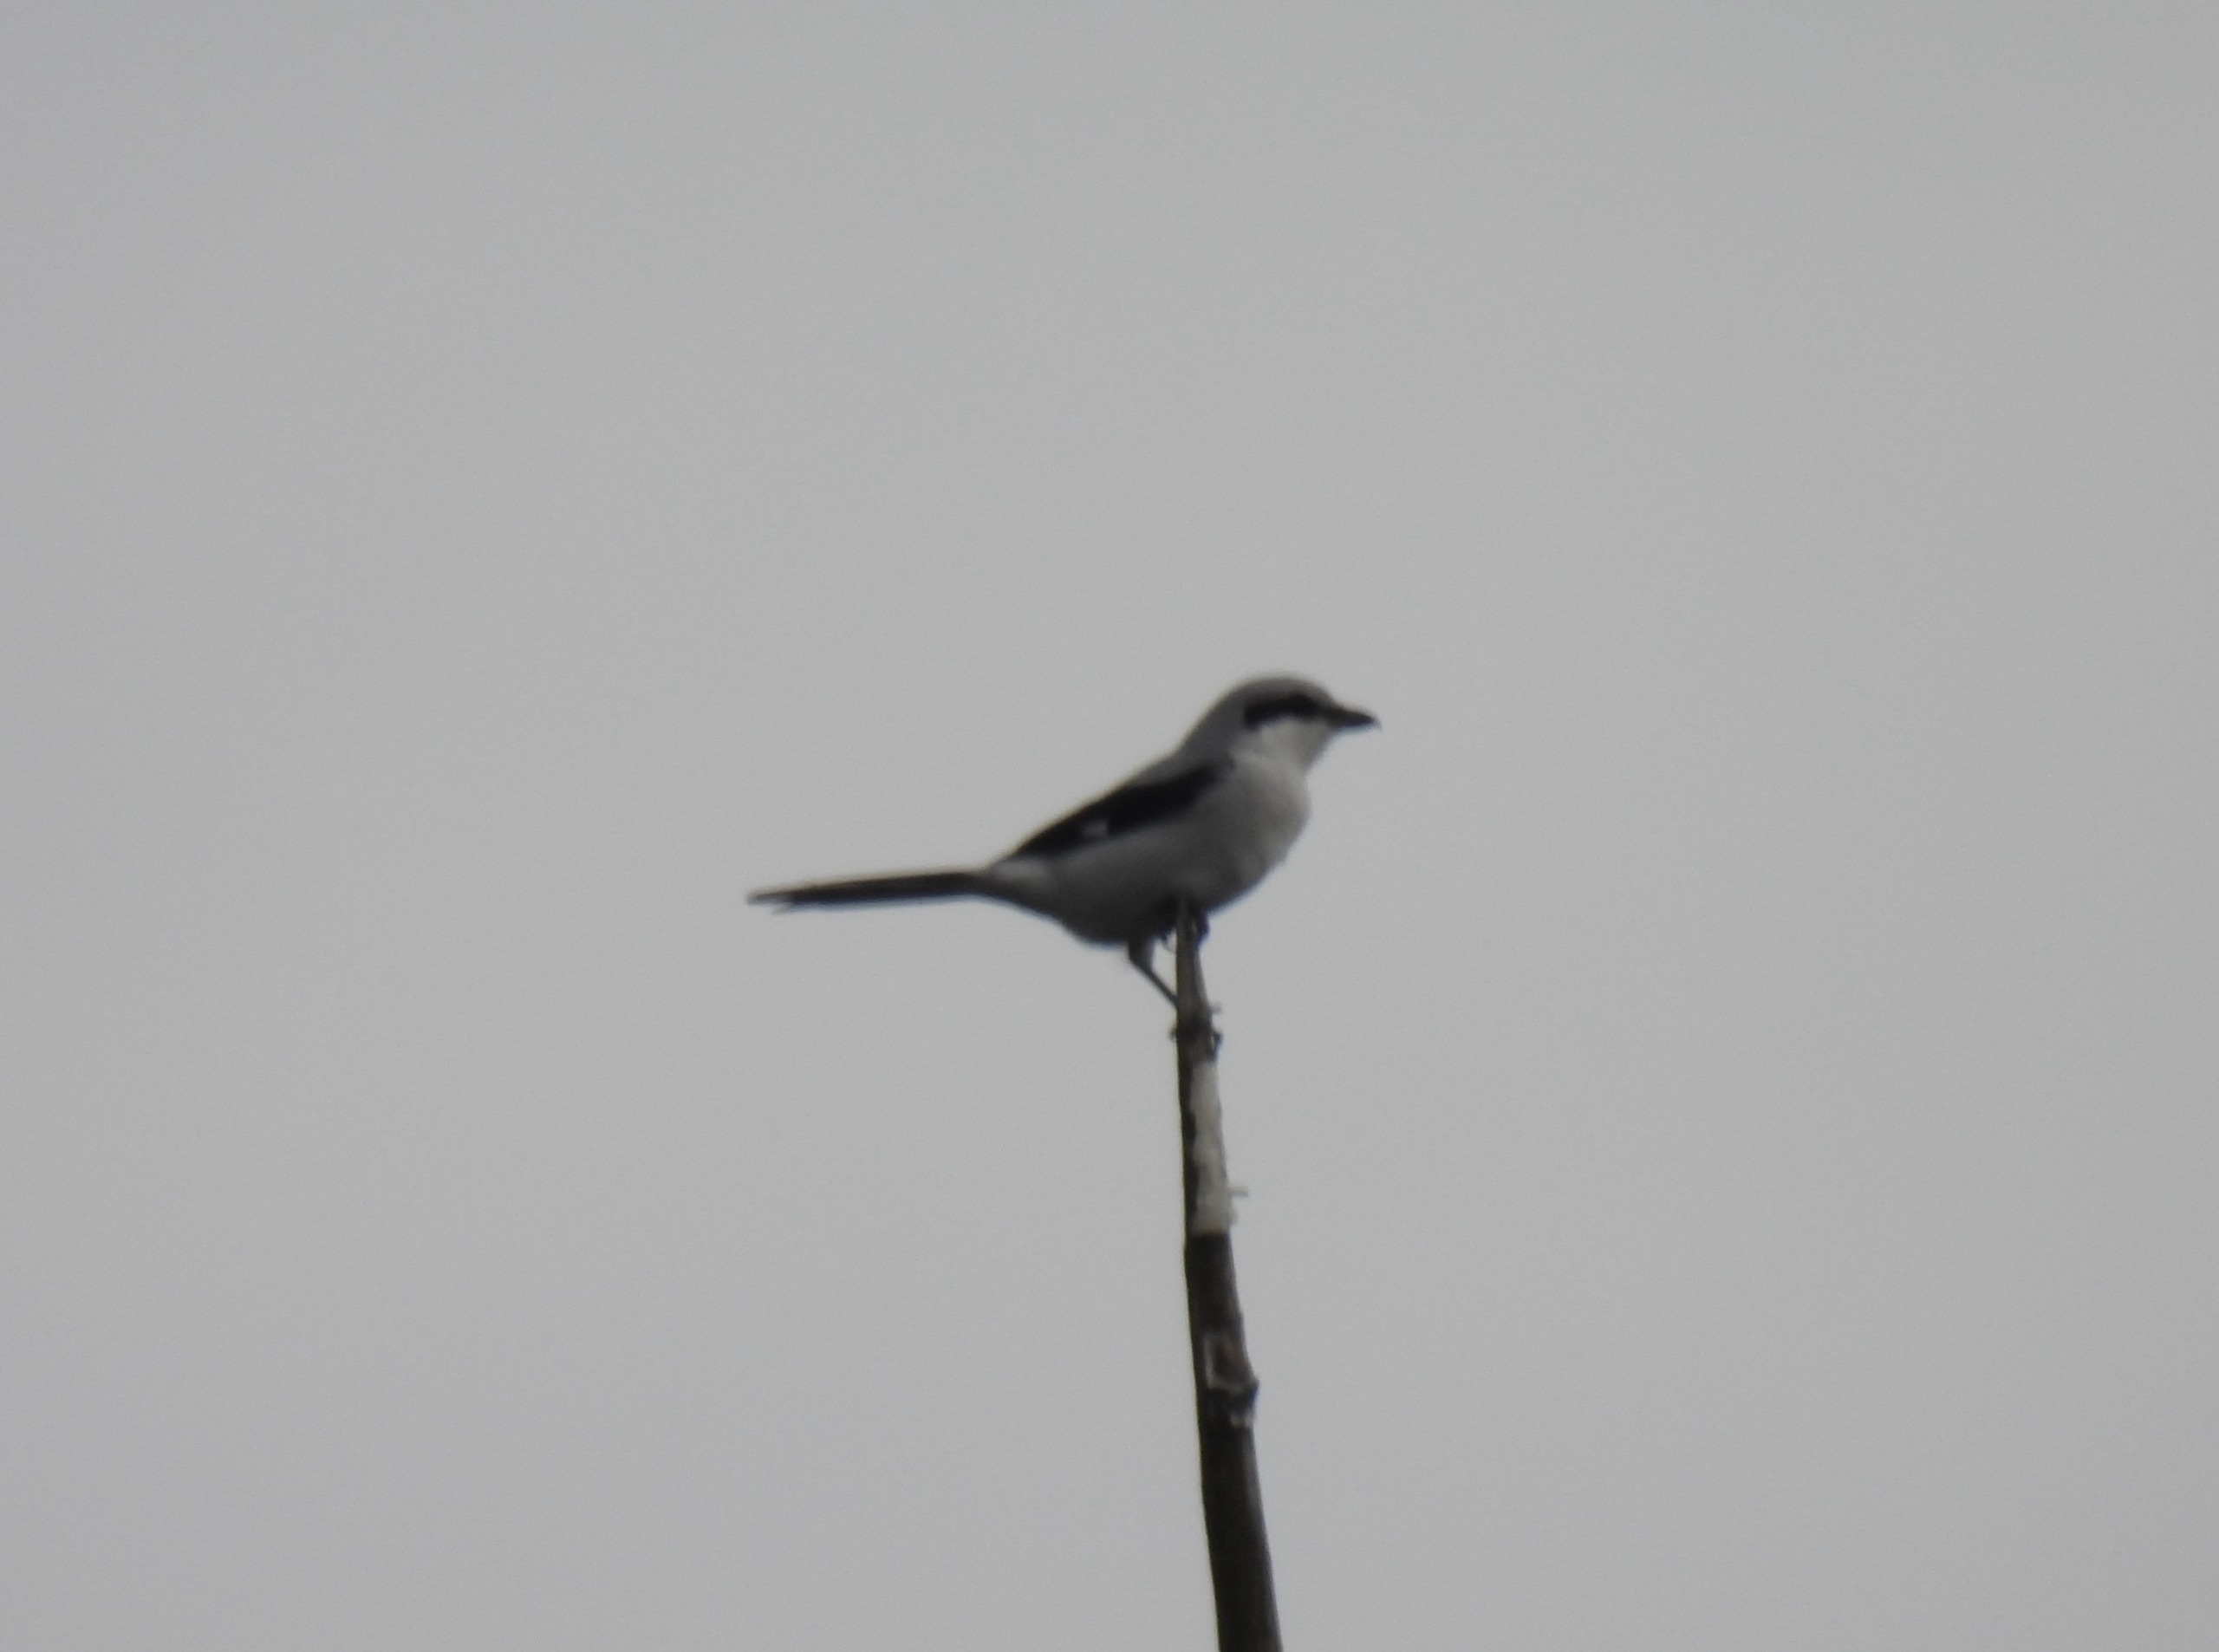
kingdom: Animalia
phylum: Chordata
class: Aves
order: Passeriformes
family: Laniidae
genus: Lanius
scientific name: Lanius excubitor
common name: Stor tornskade
